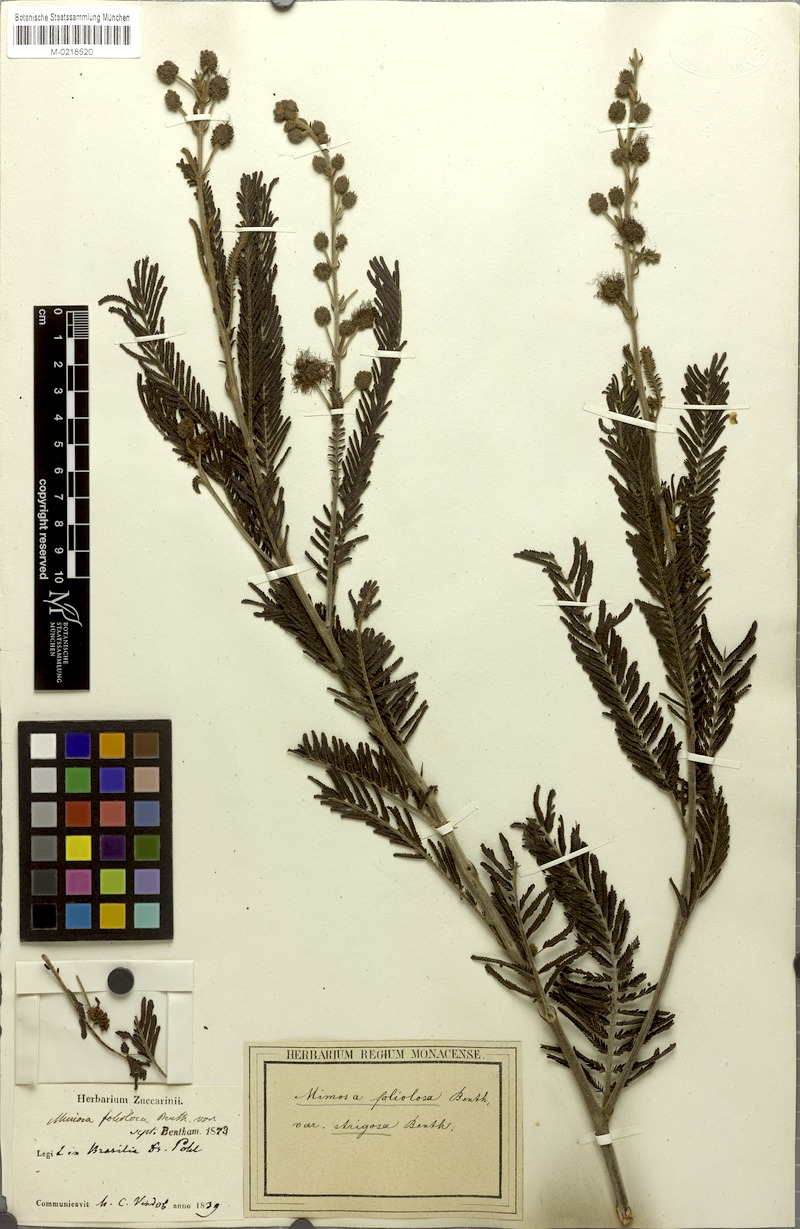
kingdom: Plantae
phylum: Tracheophyta
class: Magnoliopsida
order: Fabales
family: Fabaceae
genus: Mimosa
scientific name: Mimosa foliolosa
